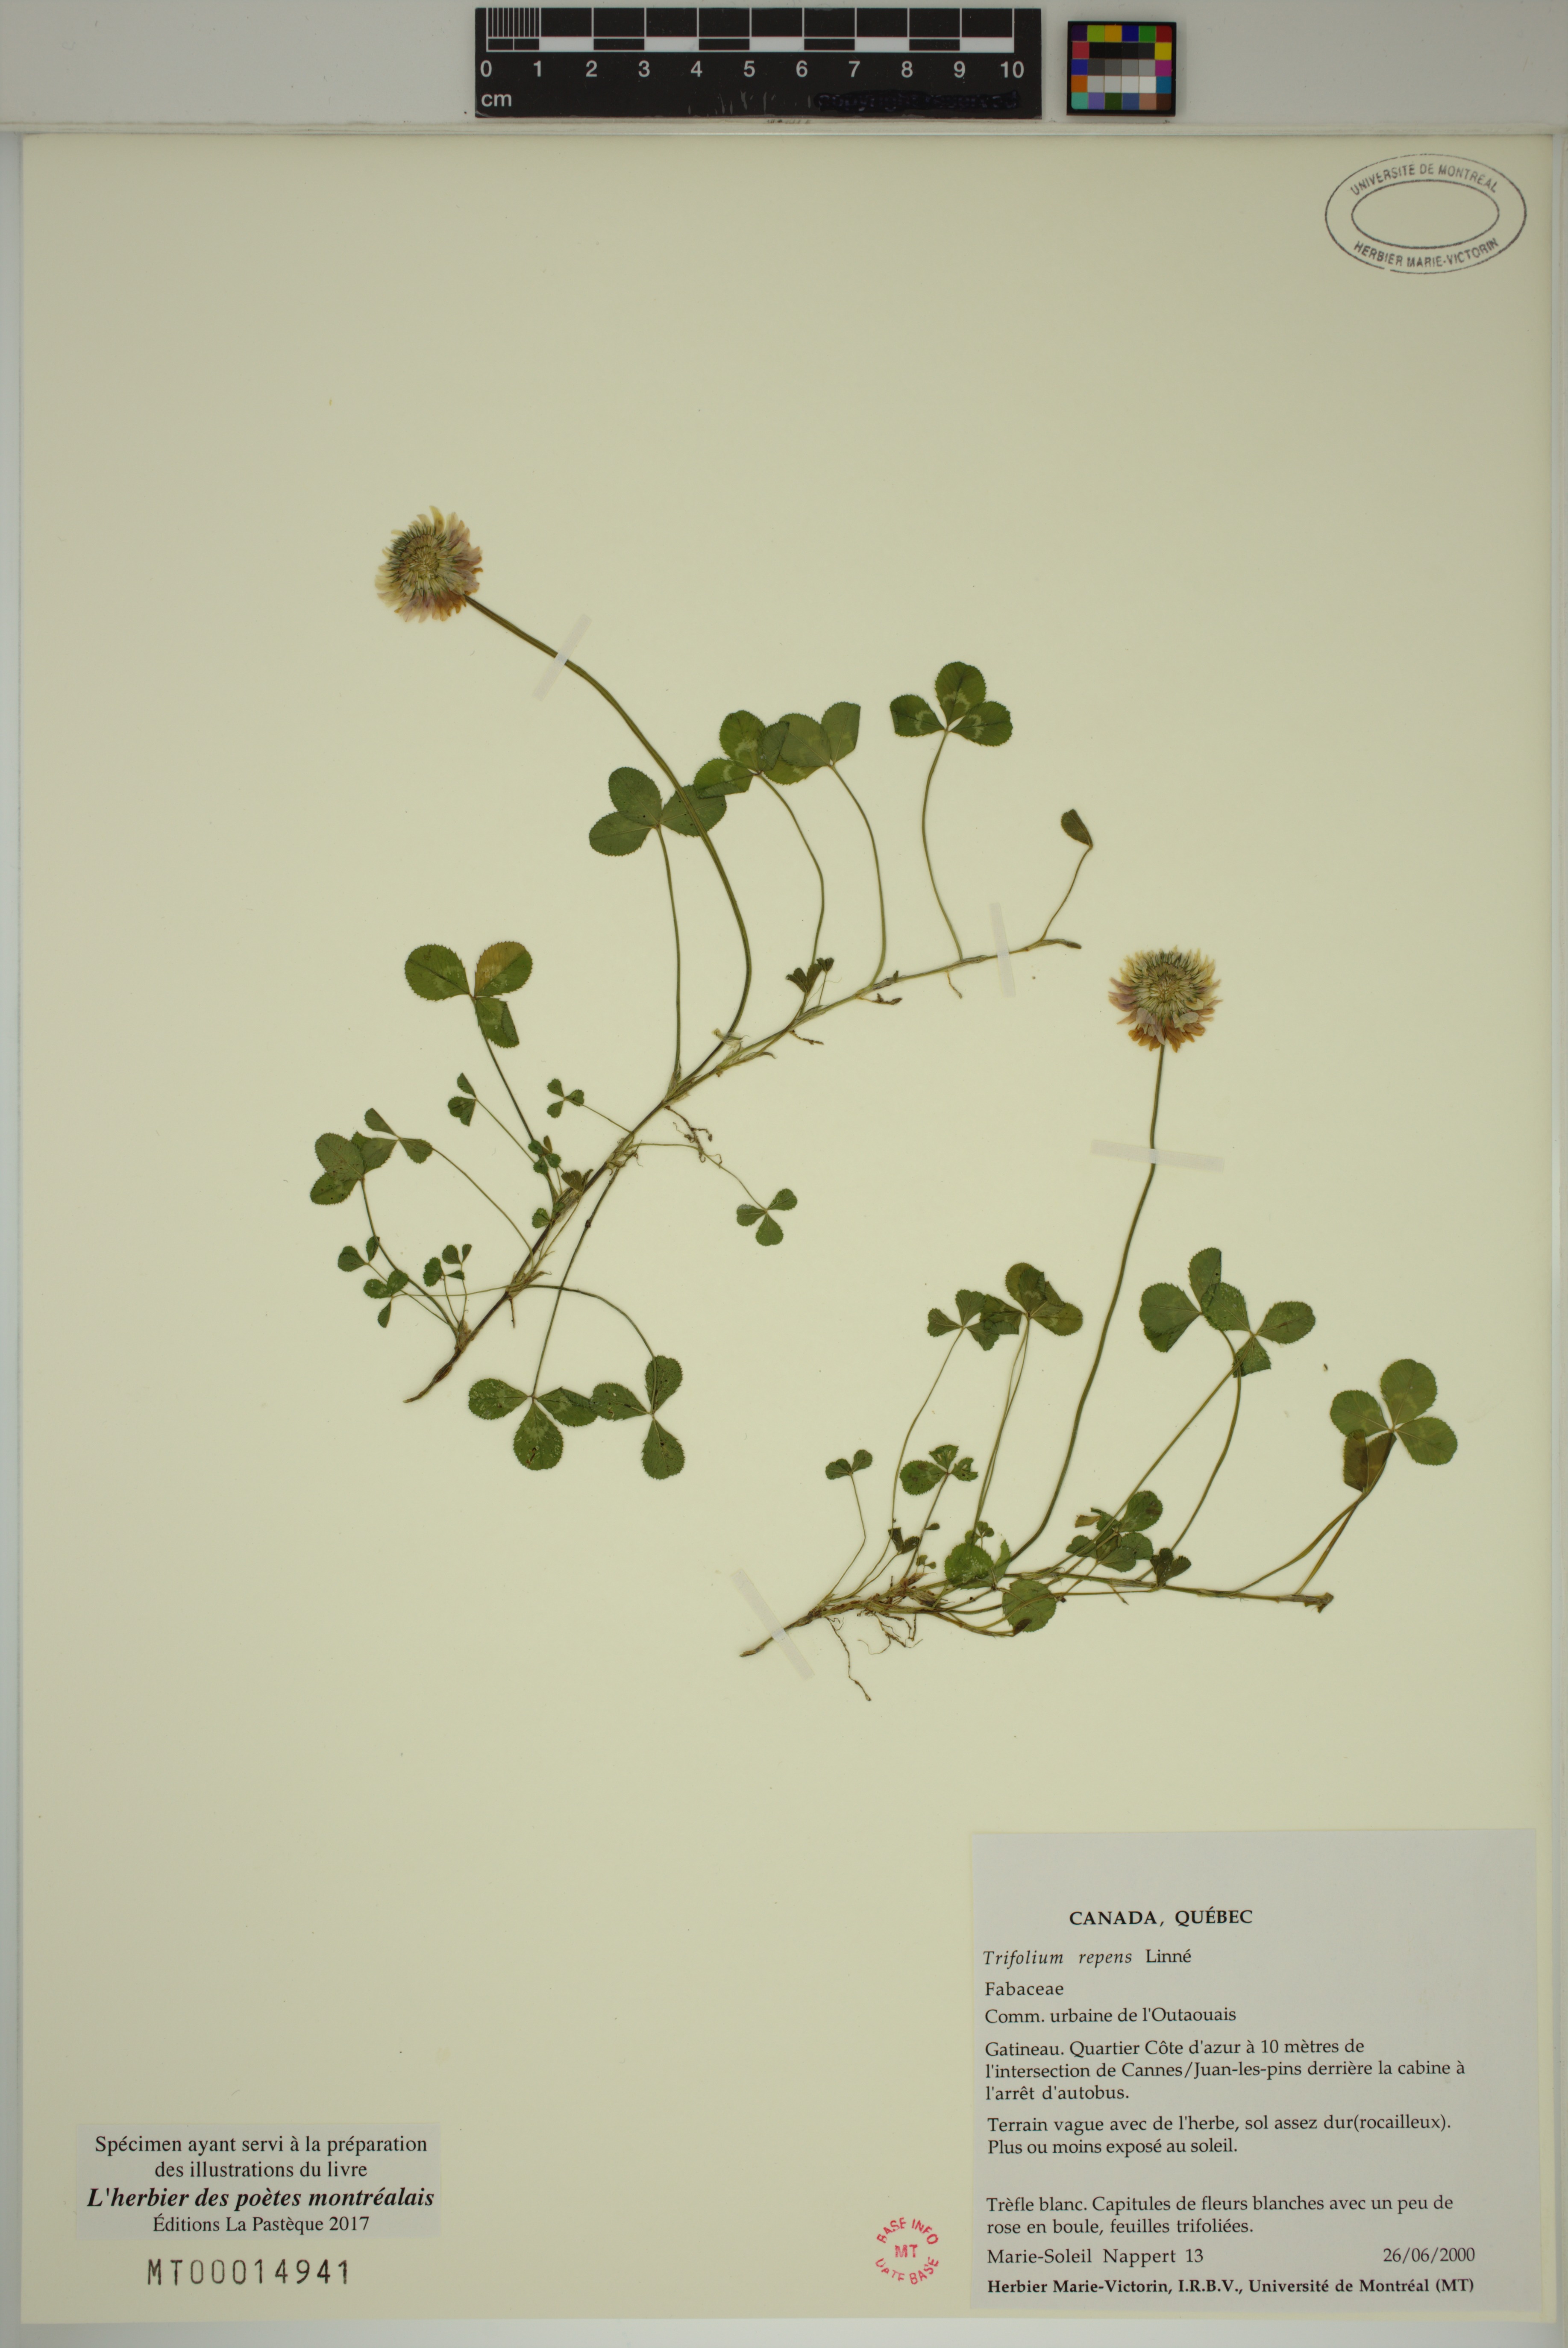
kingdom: Plantae
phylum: Tracheophyta
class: Magnoliopsida
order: Fabales
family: Fabaceae
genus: Trifolium
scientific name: Trifolium repens
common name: White clover
